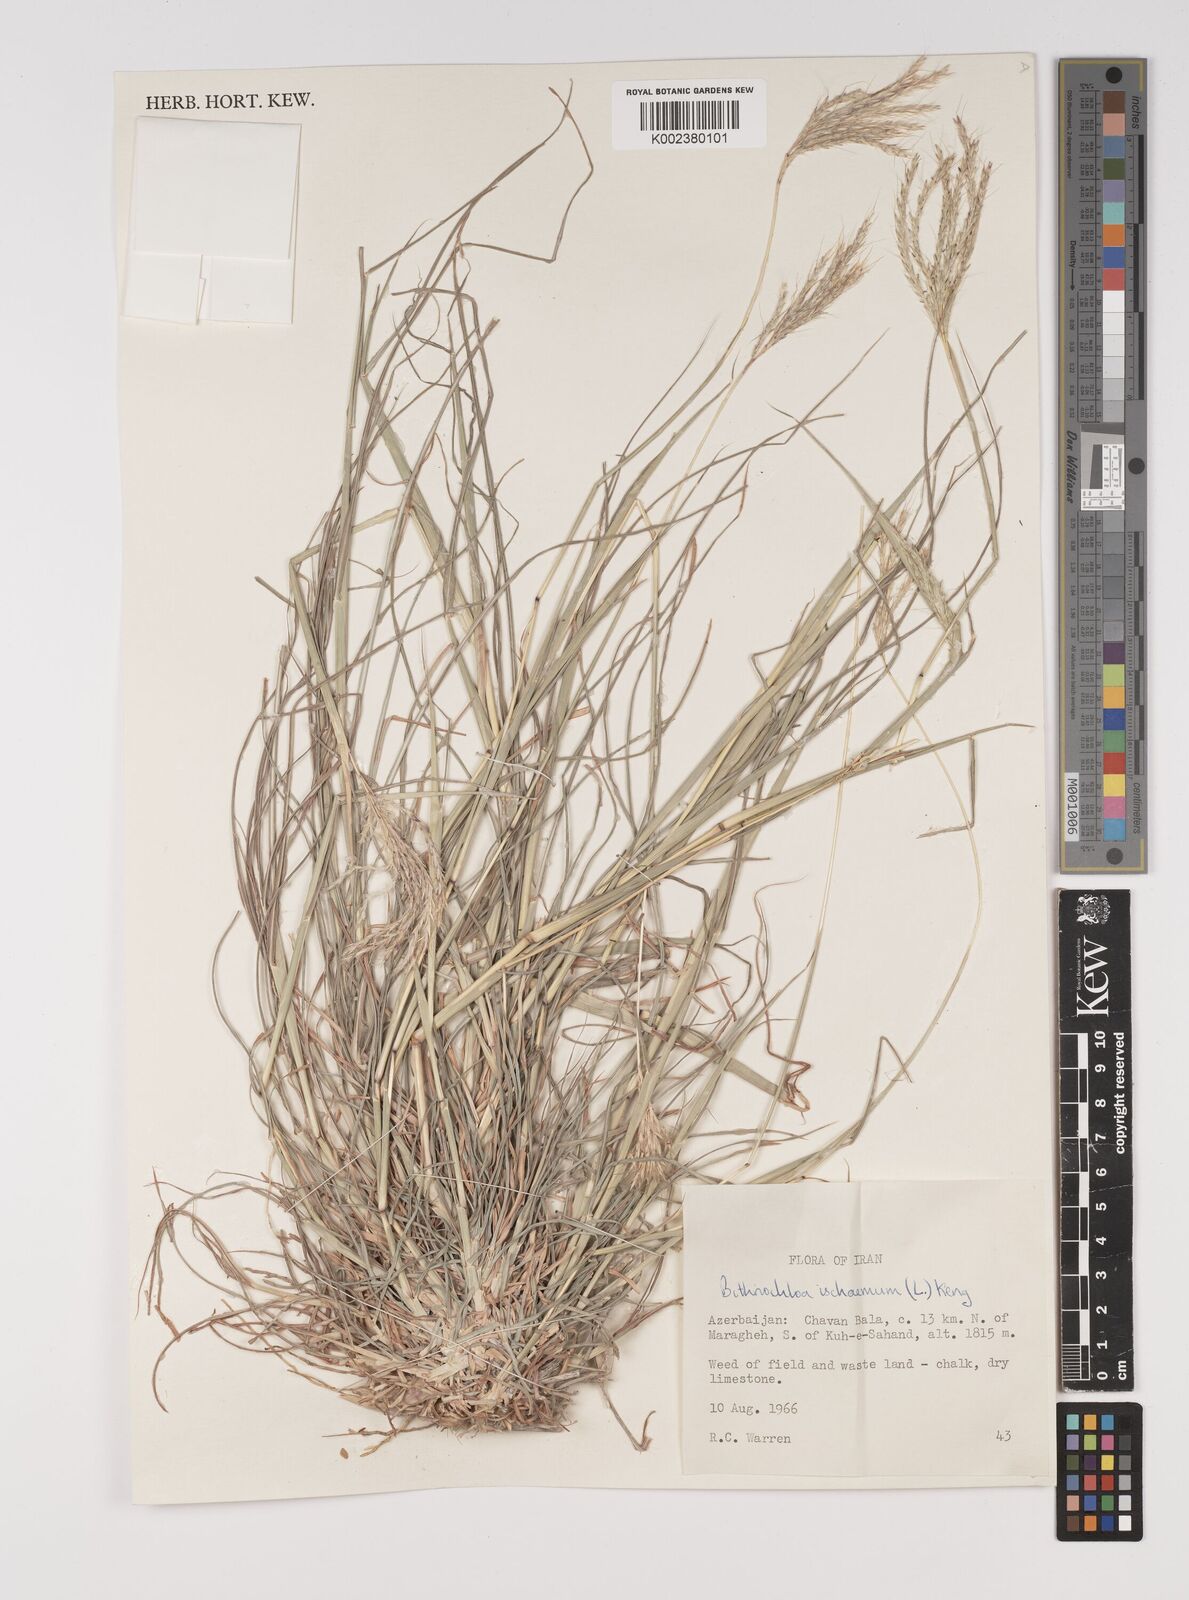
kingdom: Plantae
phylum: Tracheophyta
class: Liliopsida
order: Poales
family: Poaceae
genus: Bothriochloa
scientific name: Bothriochloa ischaemum
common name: Yellow bluestem
